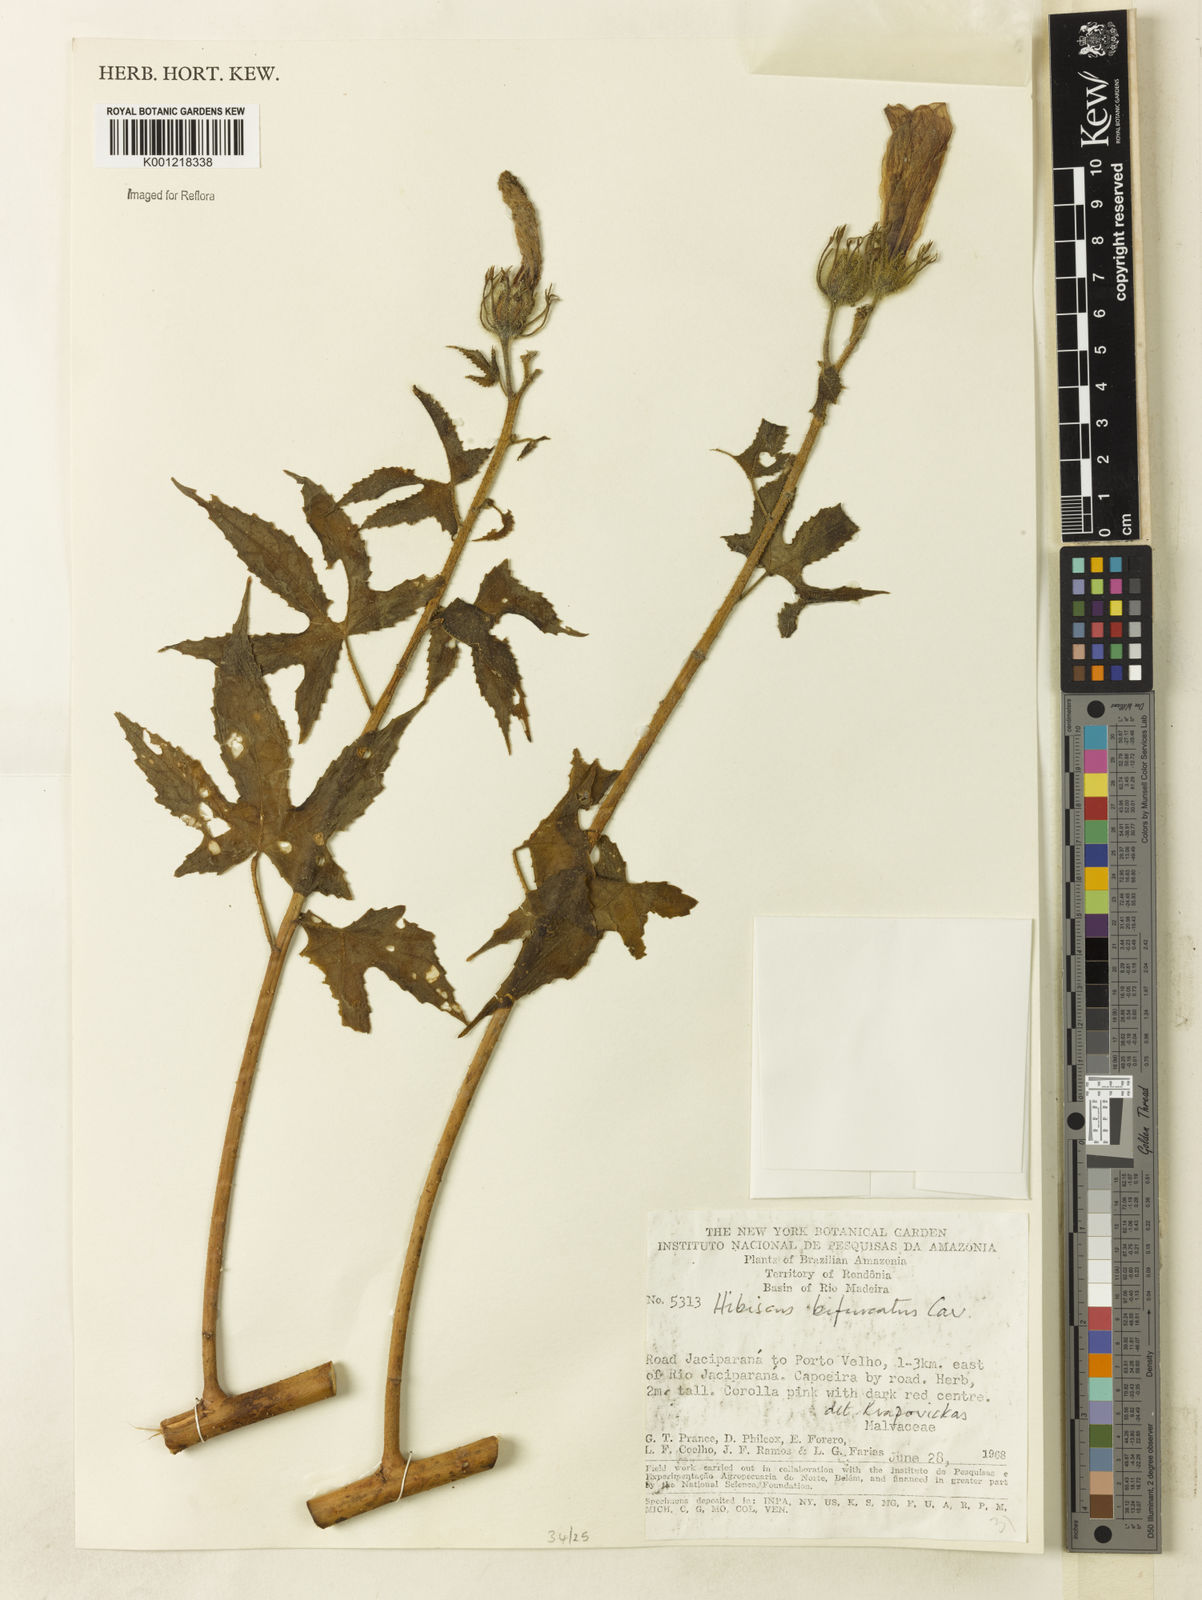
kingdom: Plantae
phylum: Tracheophyta
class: Magnoliopsida
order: Malvales
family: Malvaceae
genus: Hibiscus
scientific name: Hibiscus bifurcatus
